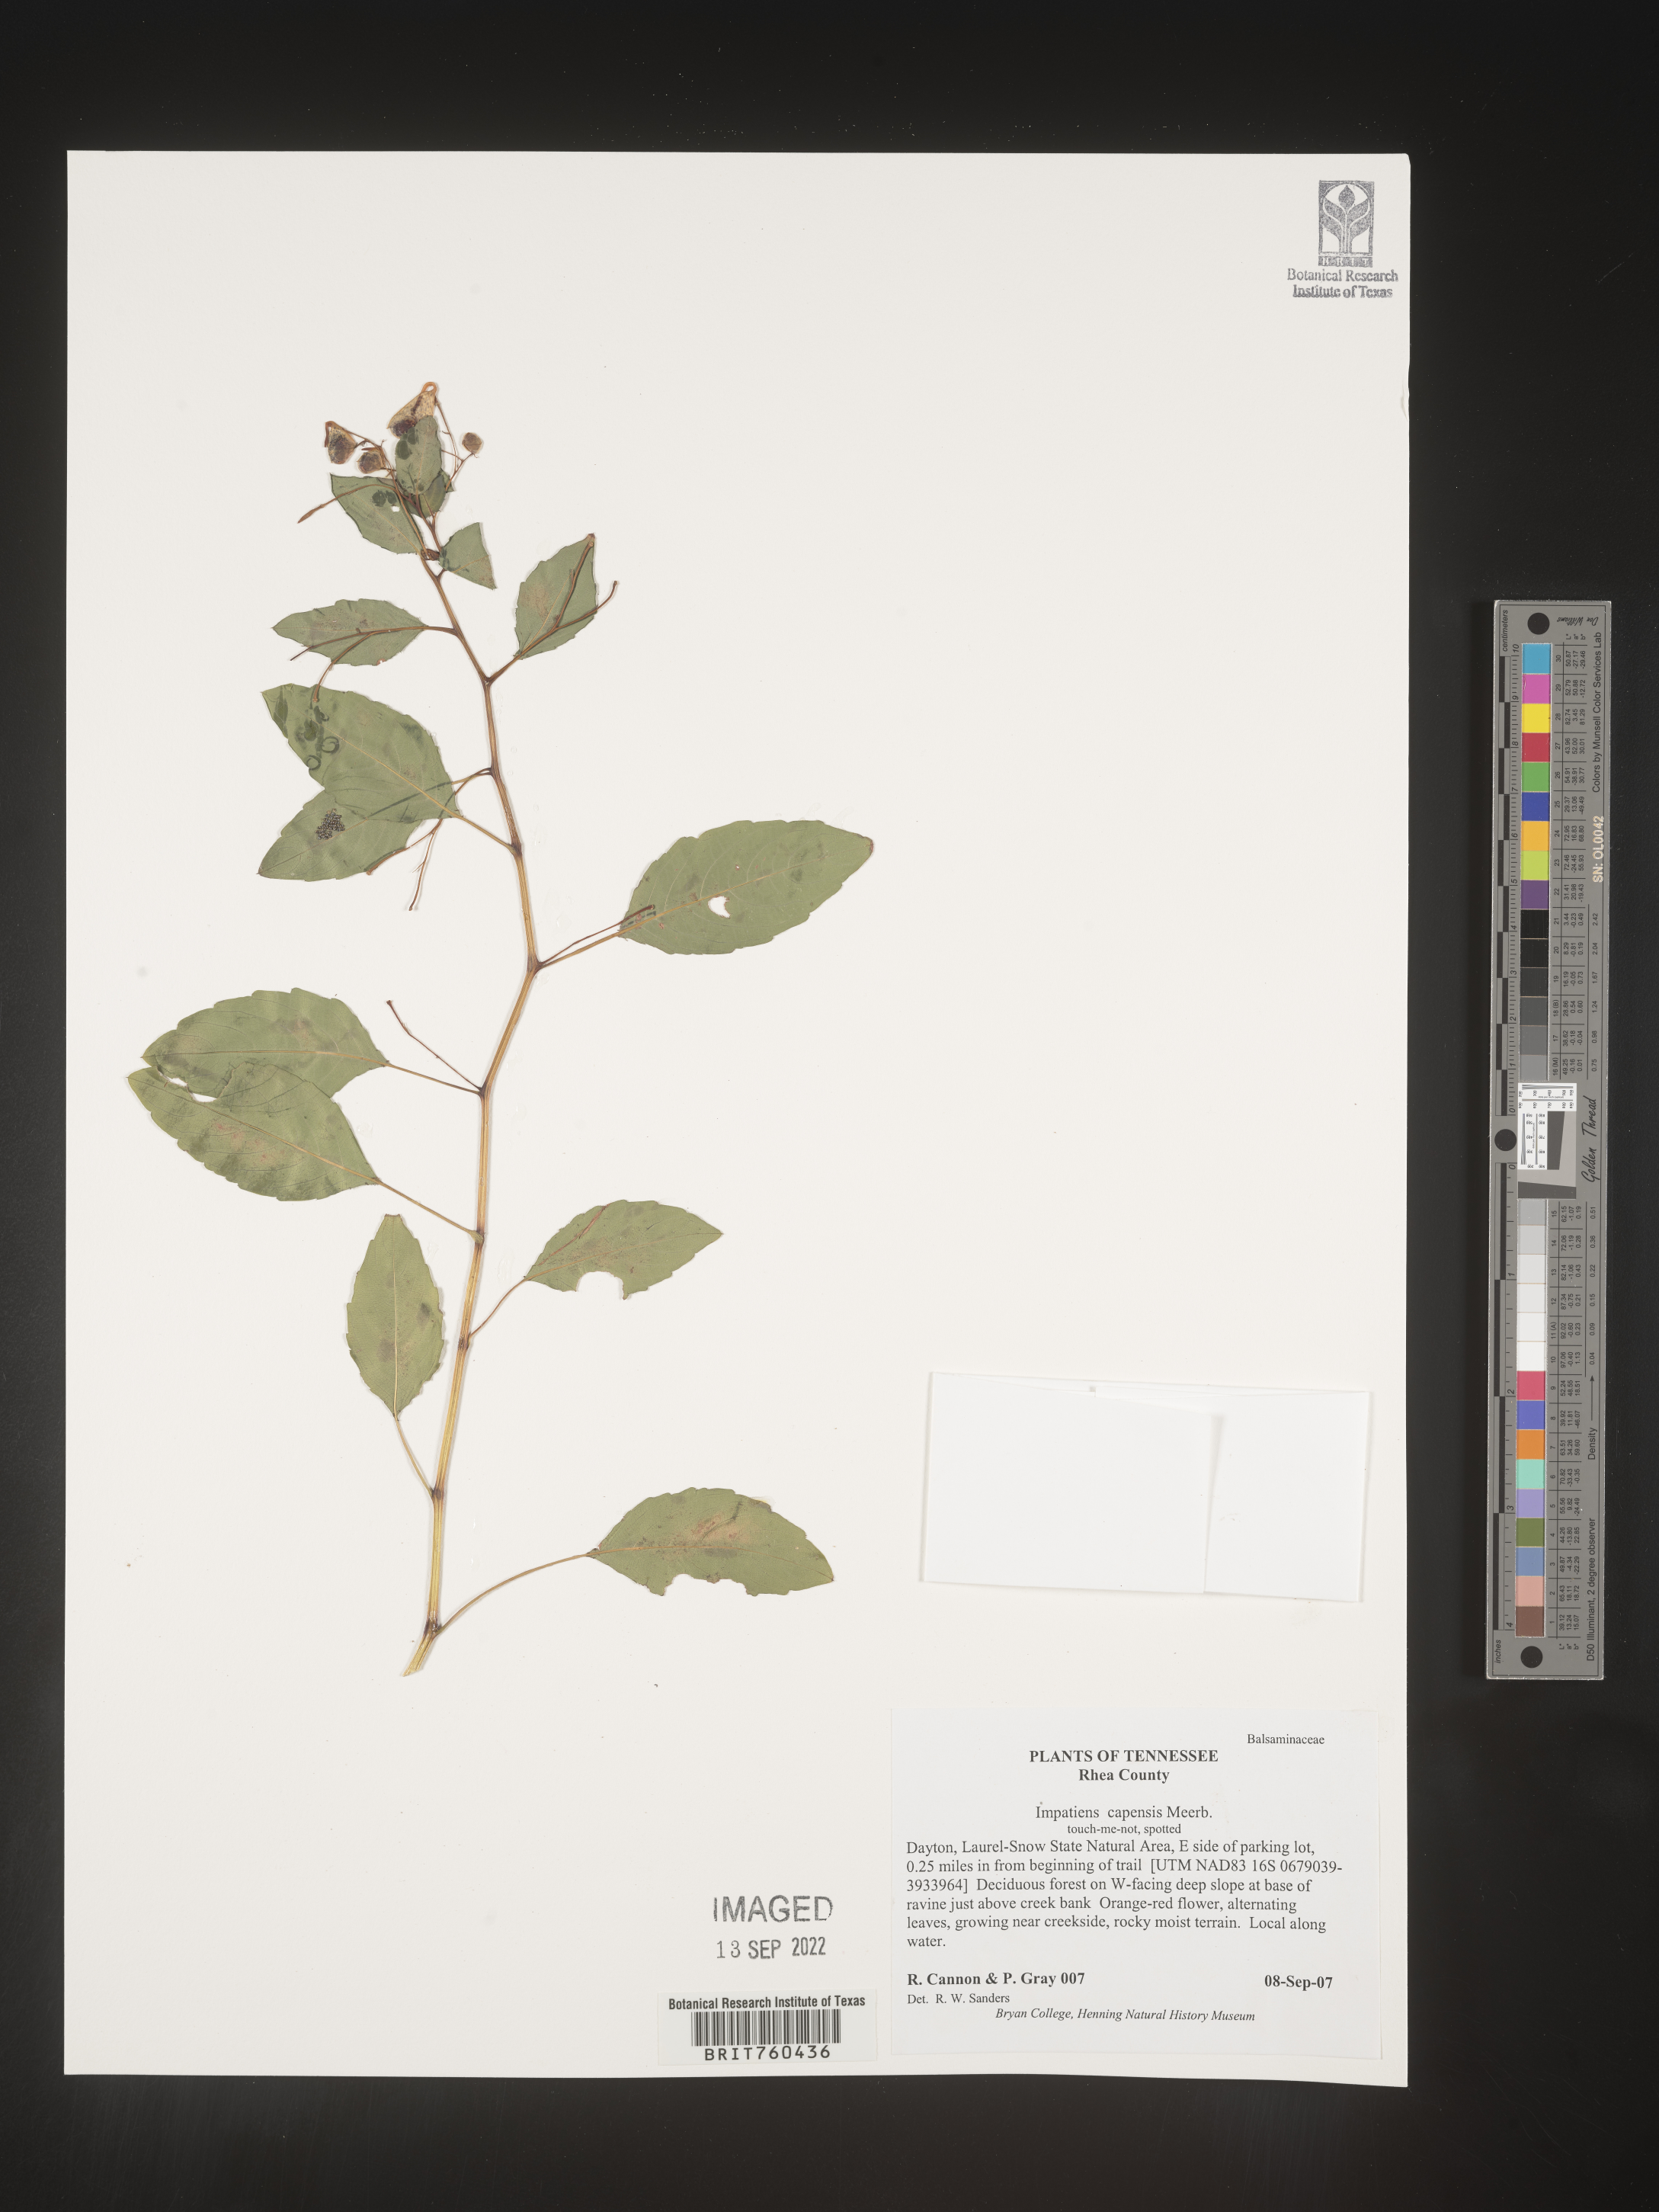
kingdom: Plantae
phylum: Tracheophyta
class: Magnoliopsida
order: Ericales
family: Balsaminaceae
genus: Impatiens
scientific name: Impatiens capensis
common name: Orange balsam
